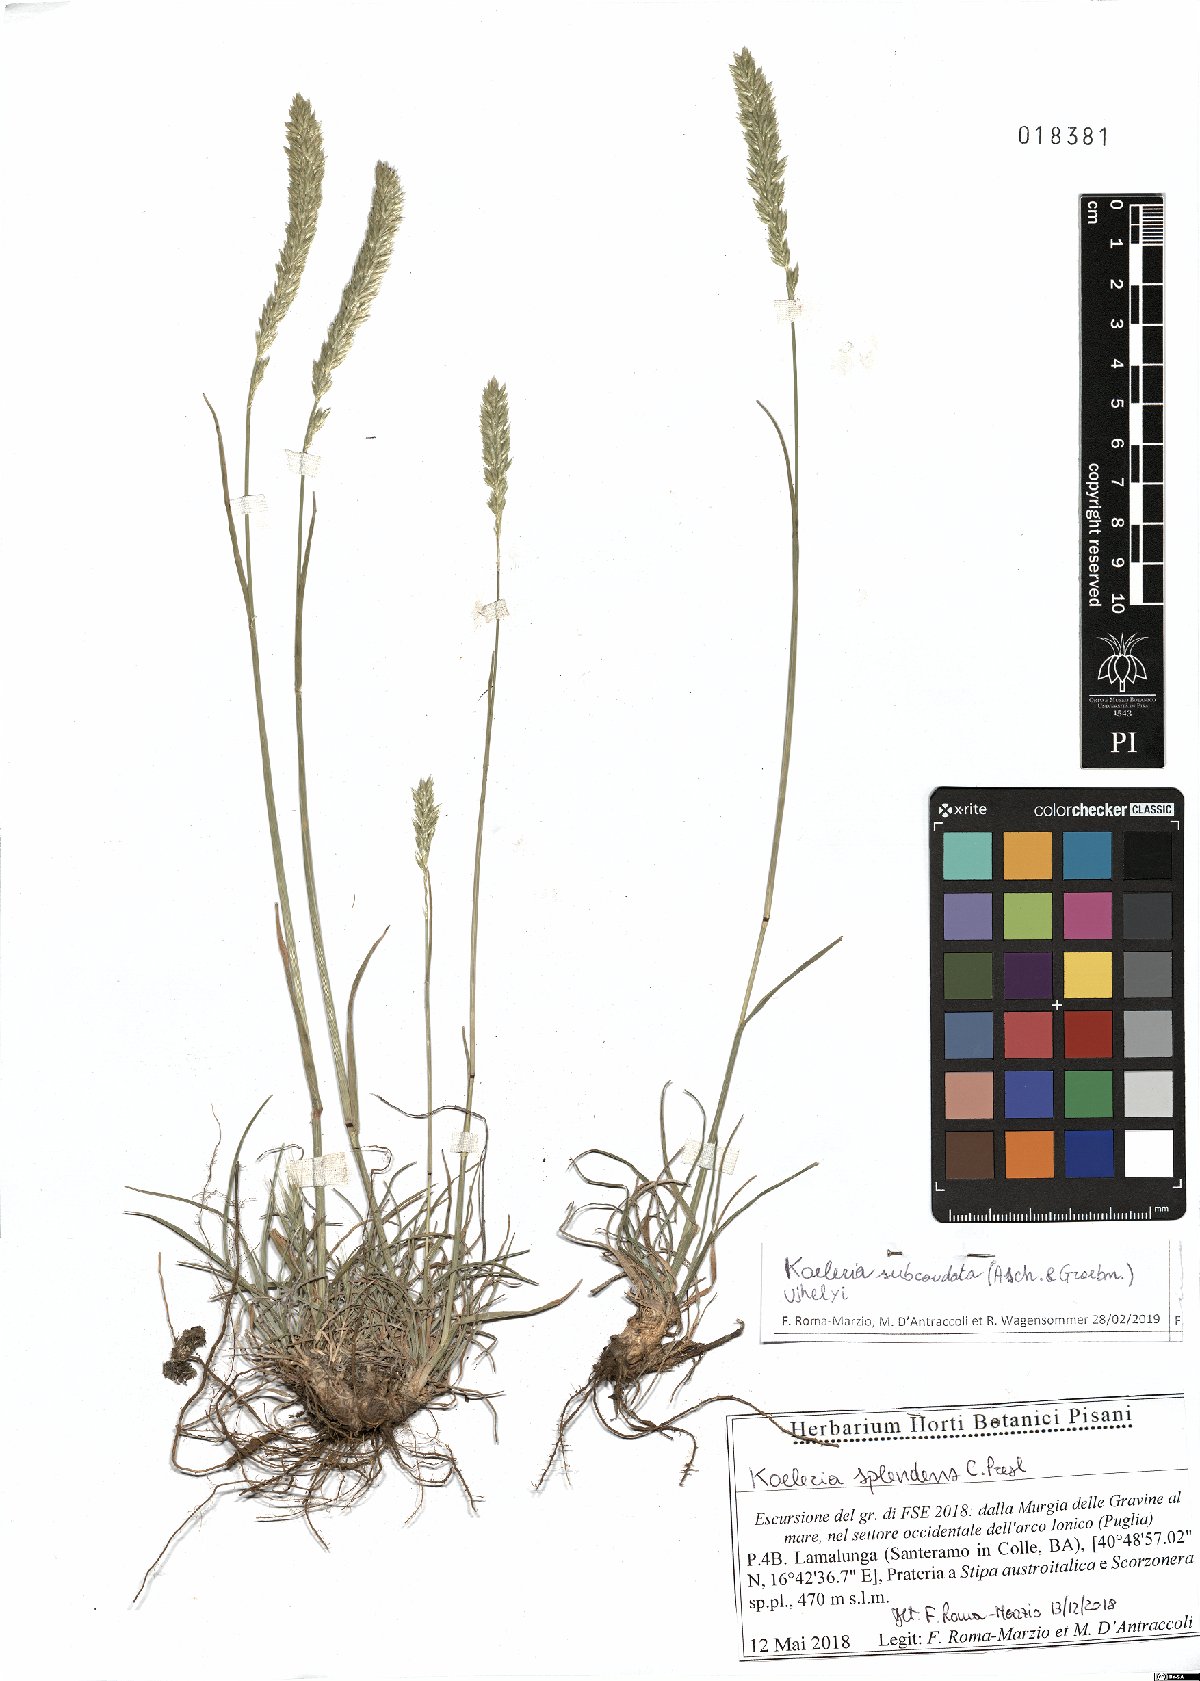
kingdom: Plantae
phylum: Tracheophyta
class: Liliopsida
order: Poales
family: Poaceae
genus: Koeleria
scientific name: Koeleria splendens
